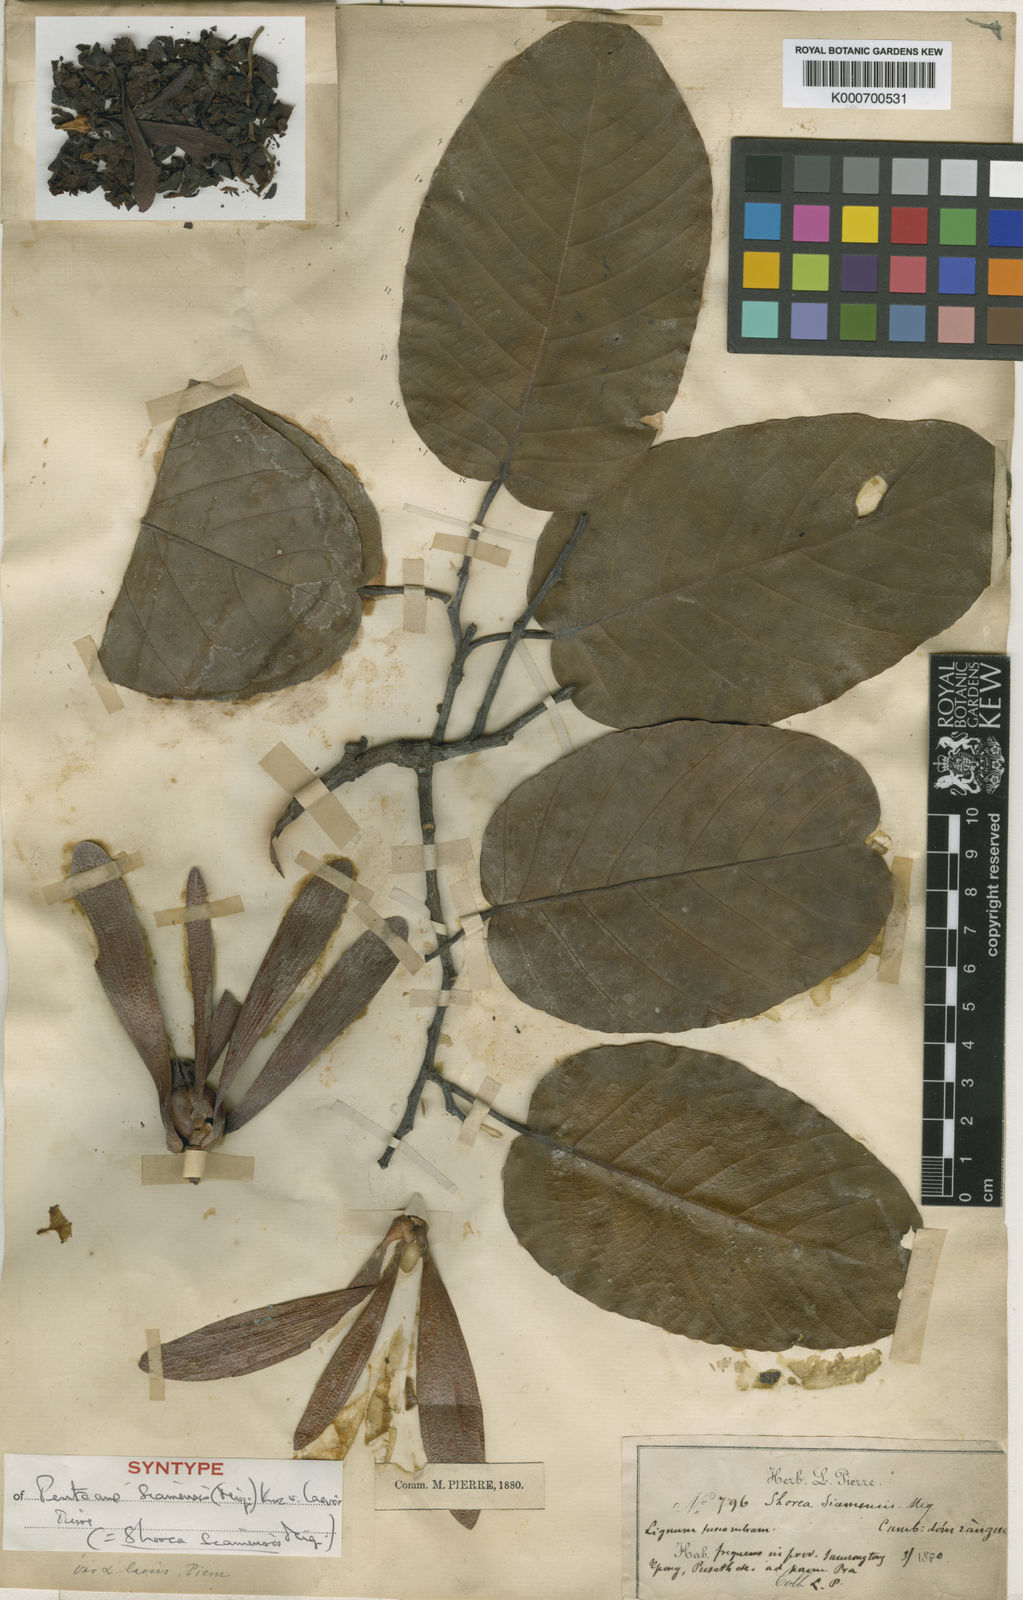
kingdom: Plantae
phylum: Tracheophyta
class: Magnoliopsida
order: Malvales
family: Dipterocarpaceae
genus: Pentacme
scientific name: Pentacme siamensis
